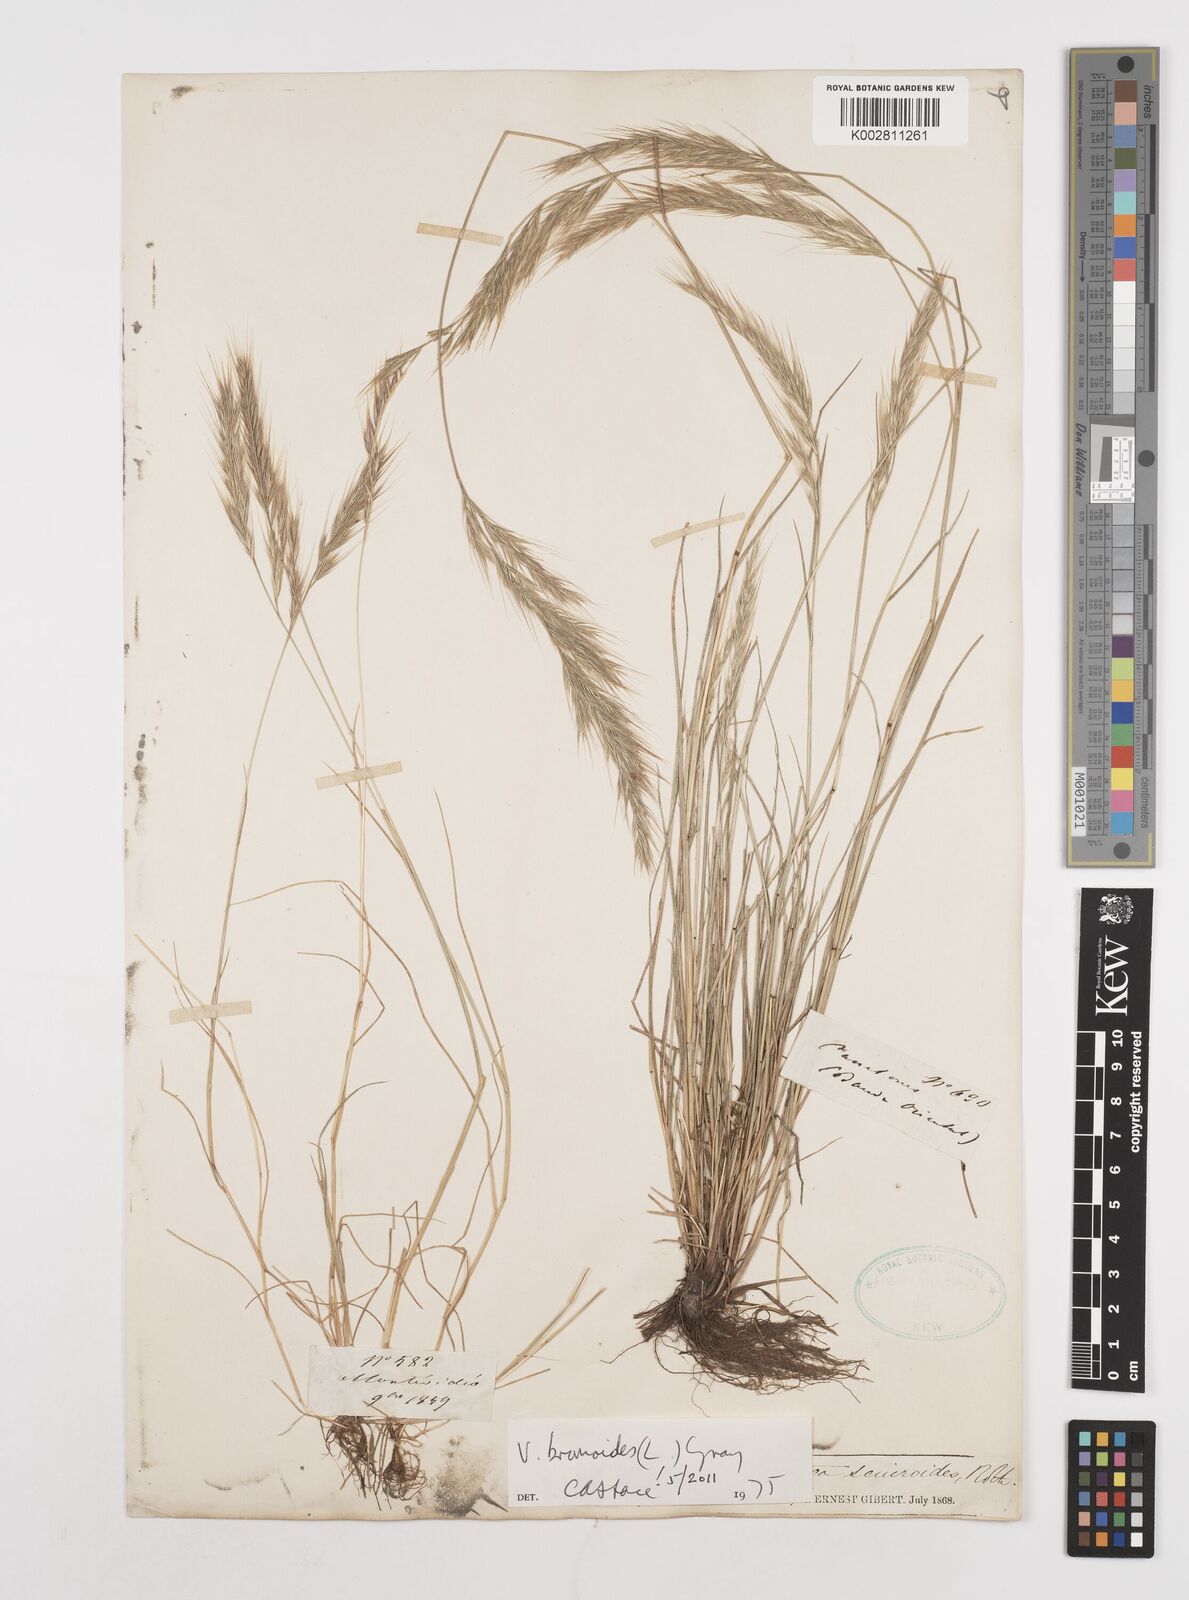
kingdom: Plantae
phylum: Tracheophyta
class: Liliopsida
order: Poales
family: Poaceae
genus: Festuca
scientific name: Festuca bromoides
